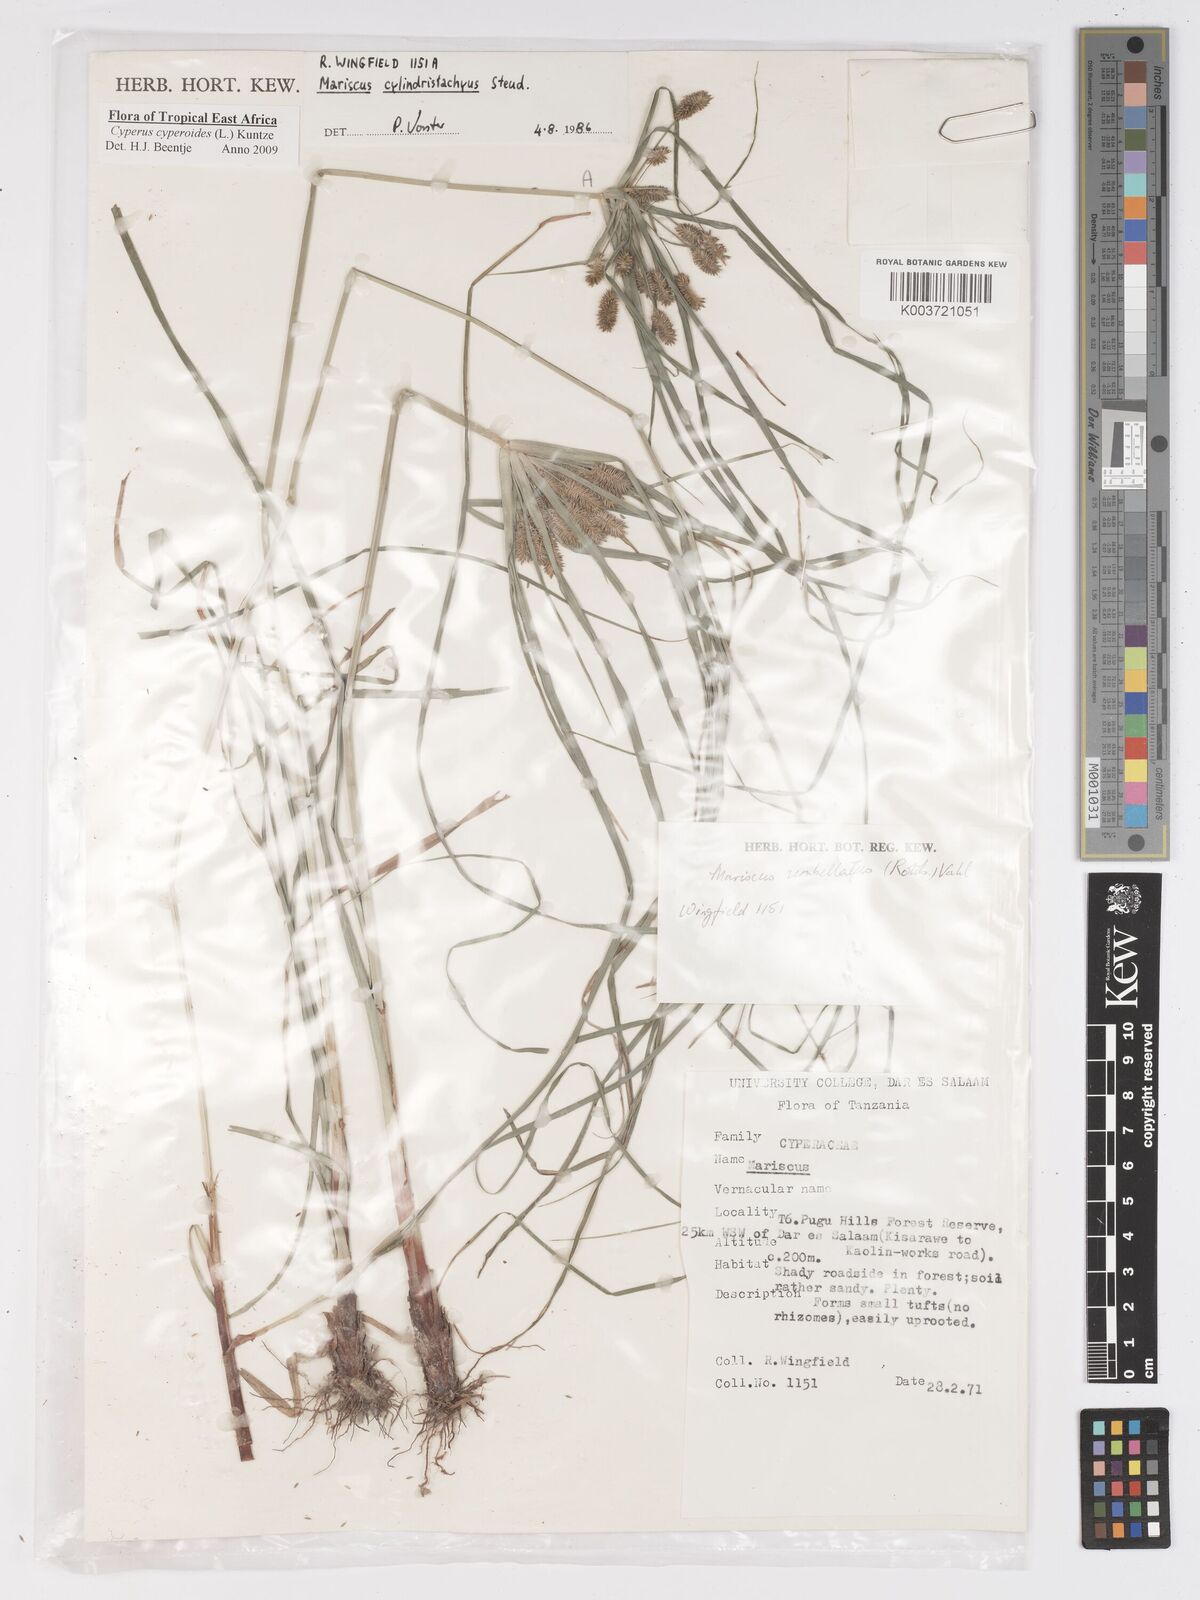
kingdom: Plantae
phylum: Tracheophyta
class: Liliopsida
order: Poales
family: Cyperaceae
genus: Cyperus
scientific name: Cyperus cyperoides
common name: Pacific island flat sedge
